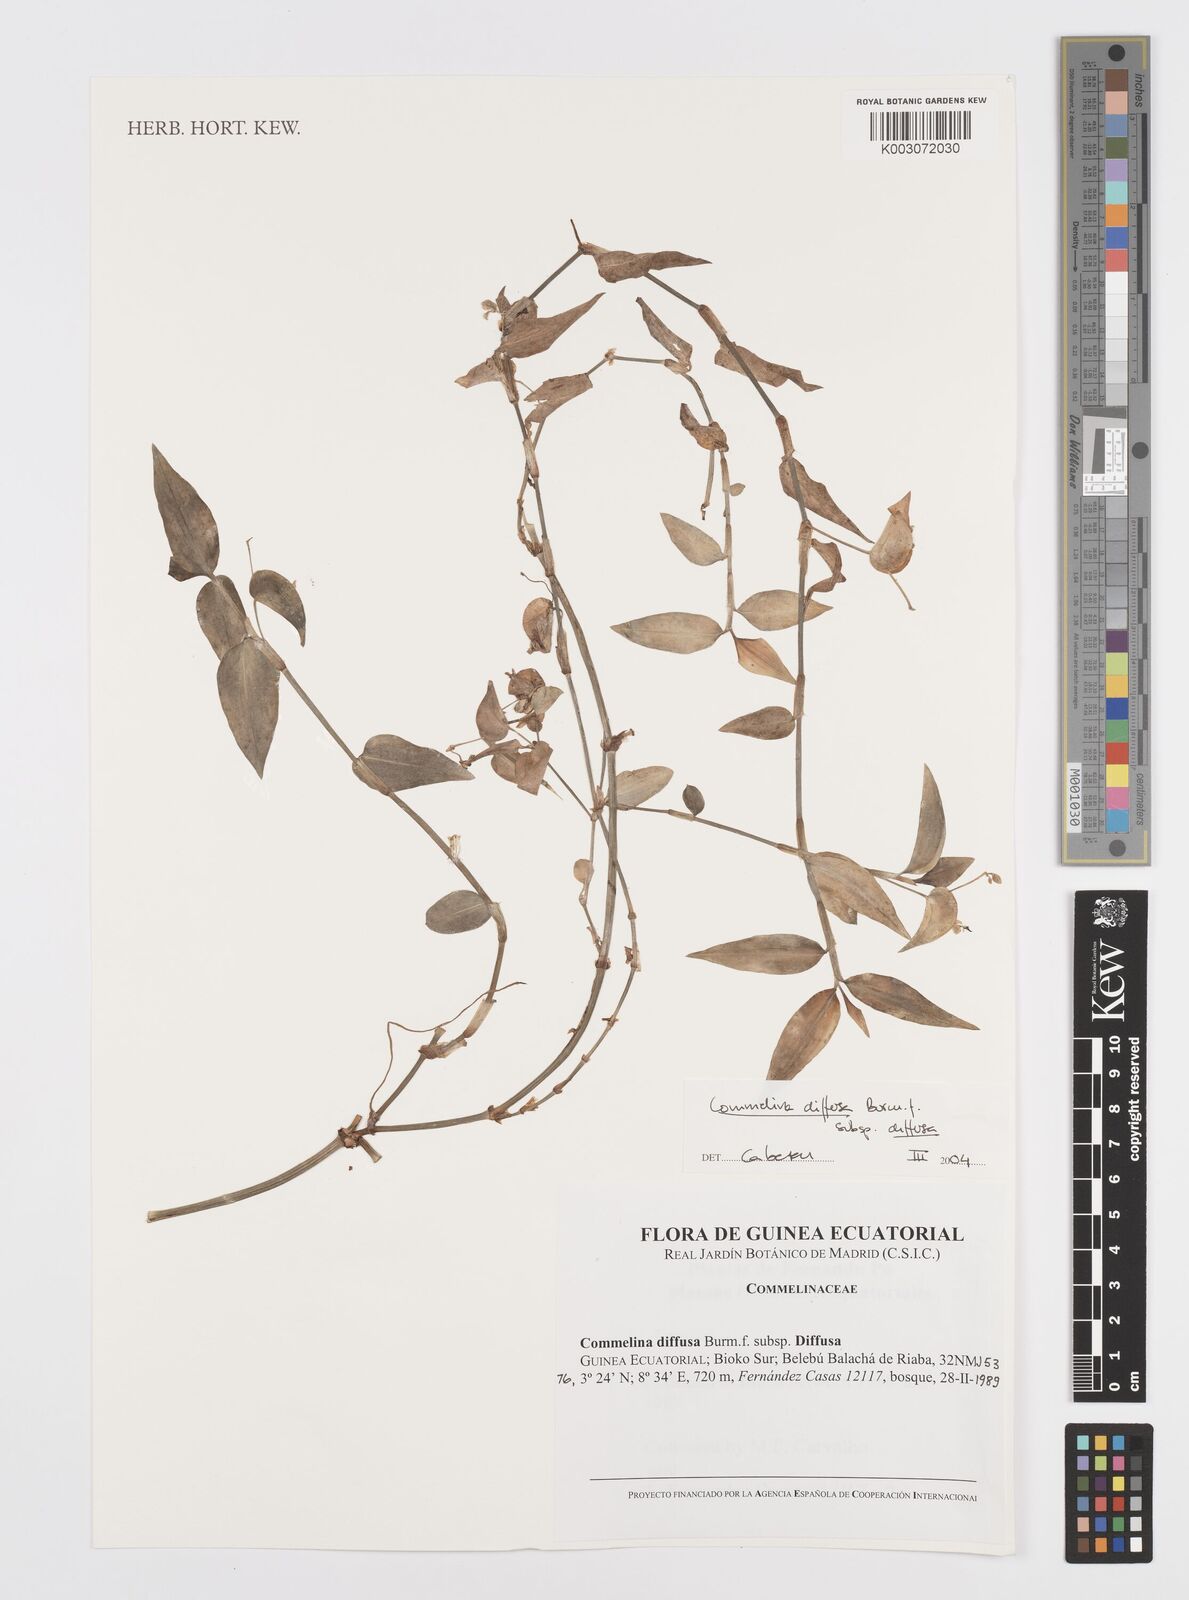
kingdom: Plantae
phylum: Tracheophyta
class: Liliopsida
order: Commelinales
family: Commelinaceae
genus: Commelina
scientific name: Commelina diffusa
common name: Climbing dayflower
